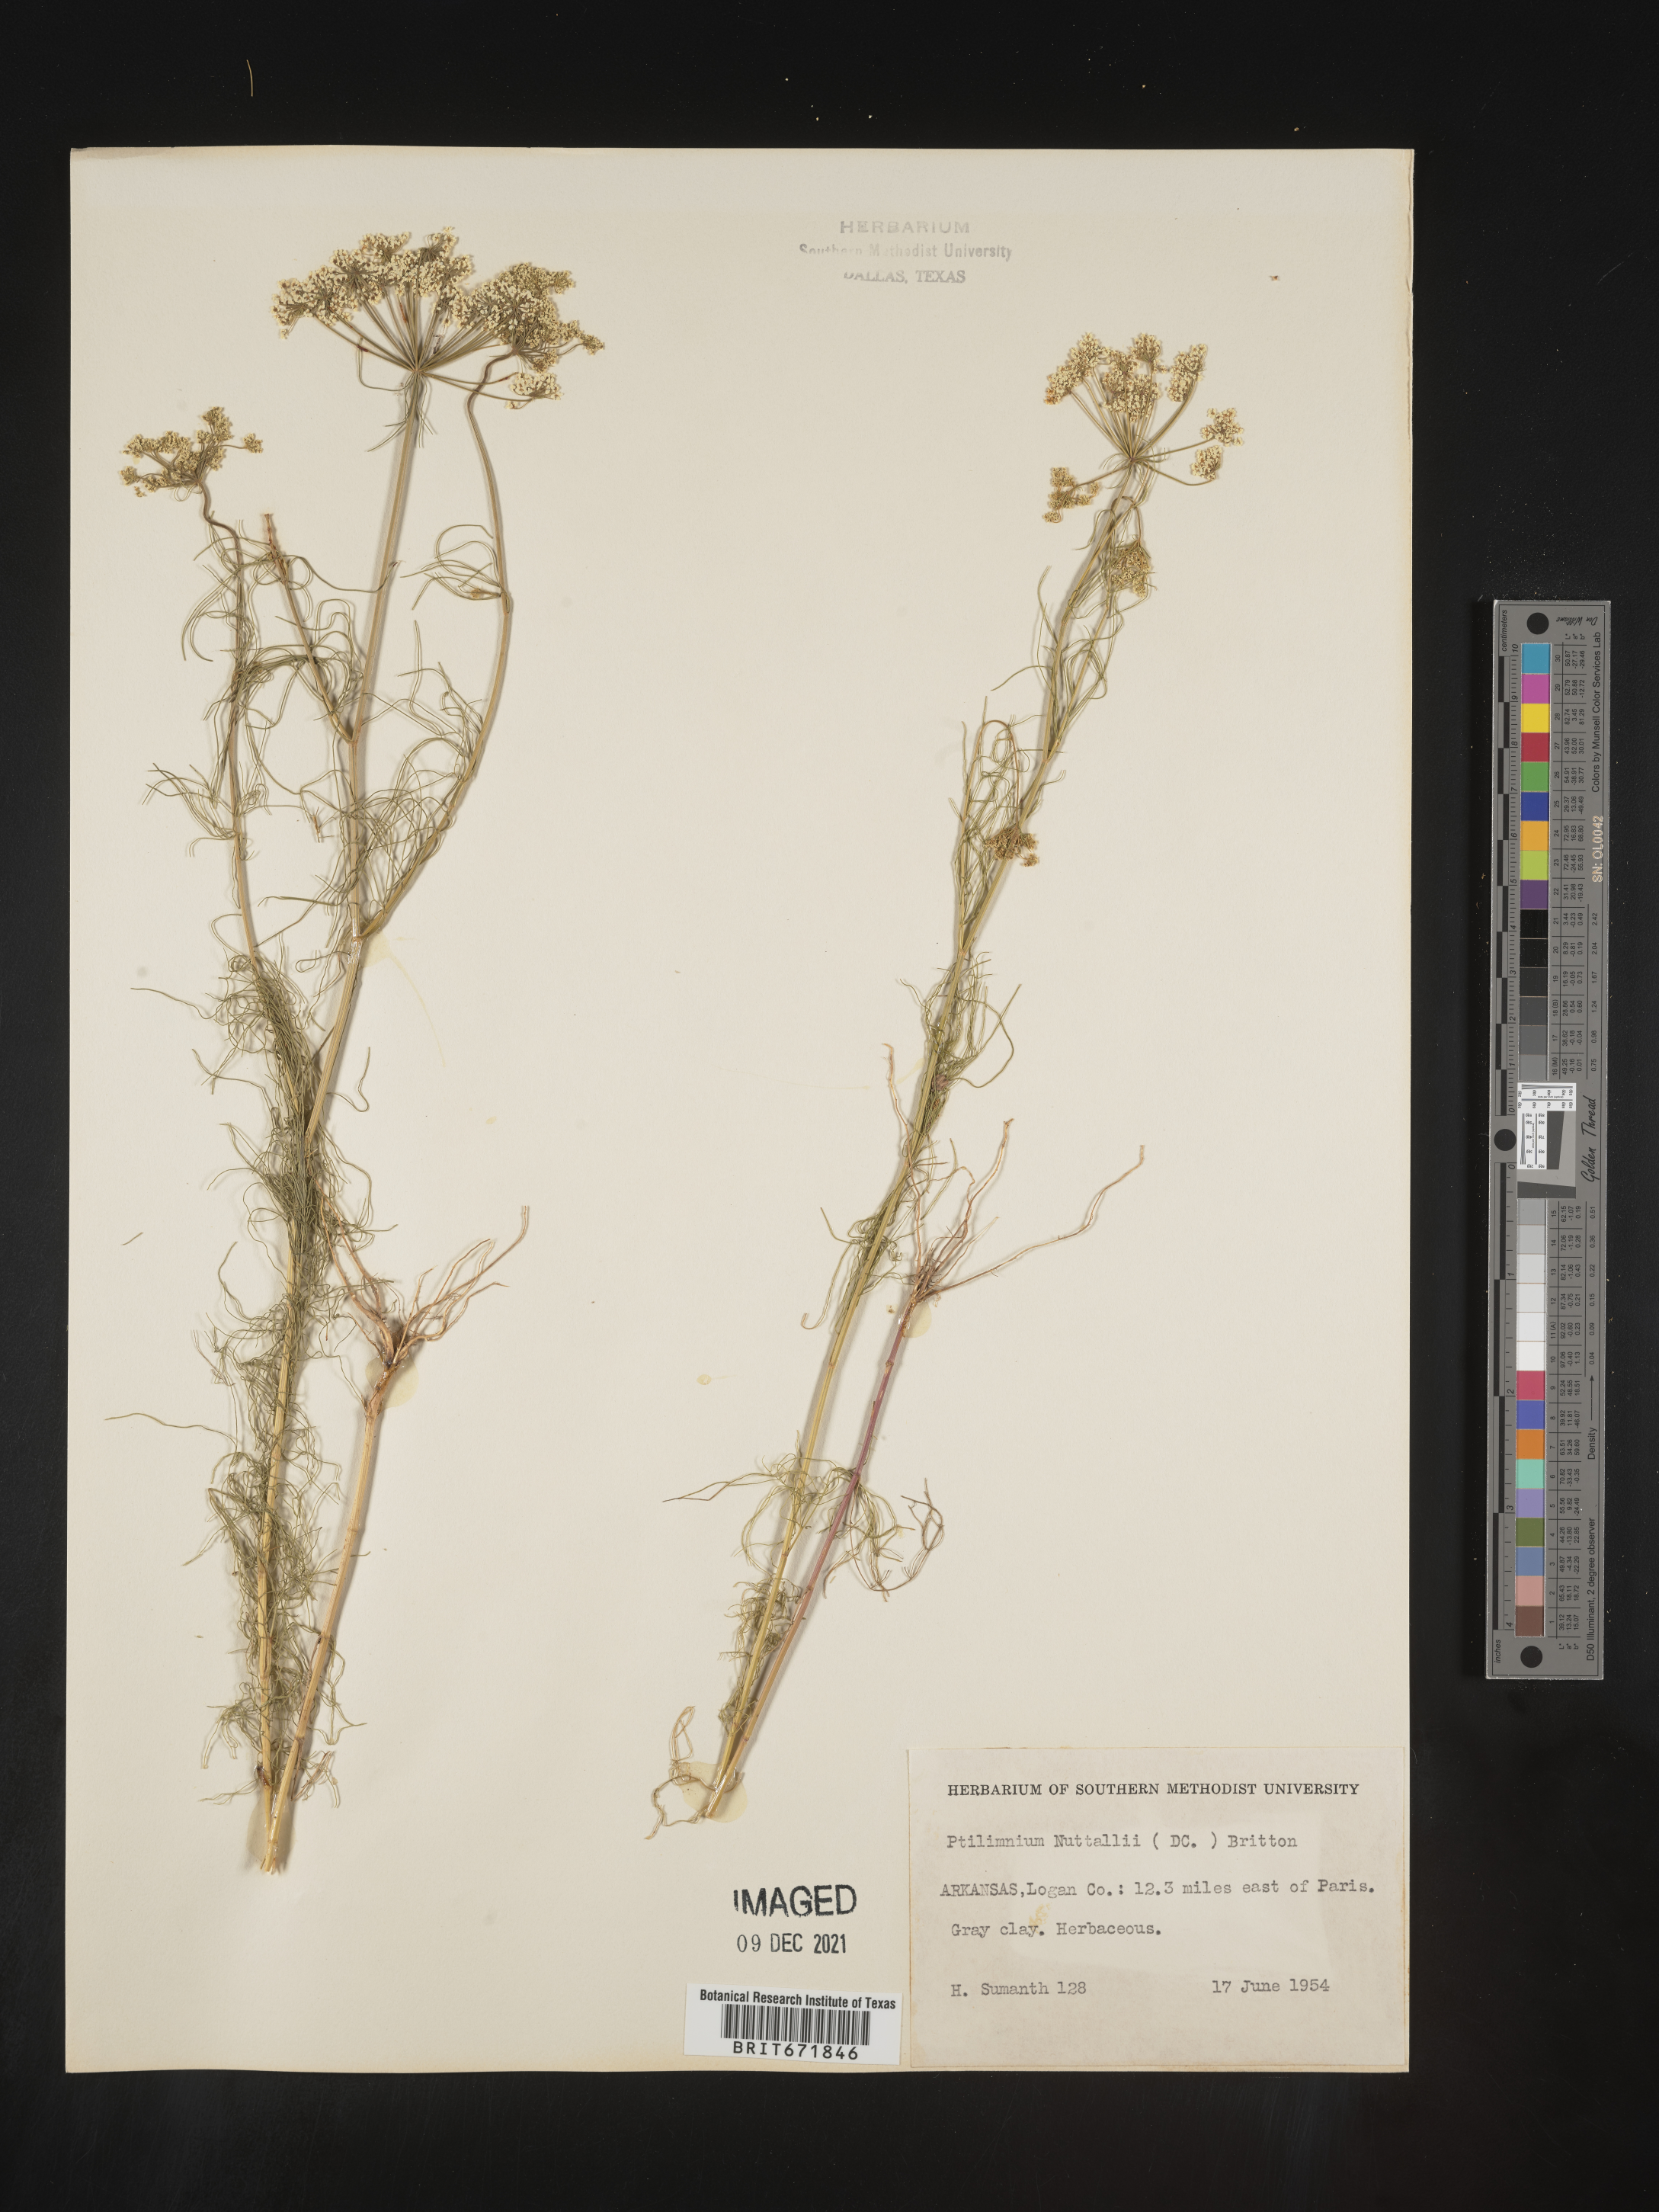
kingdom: Plantae
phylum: Tracheophyta
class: Magnoliopsida
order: Apiales
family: Apiaceae
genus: Ptilimnium
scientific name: Ptilimnium nuttallii
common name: Ozark bishop's-weed
